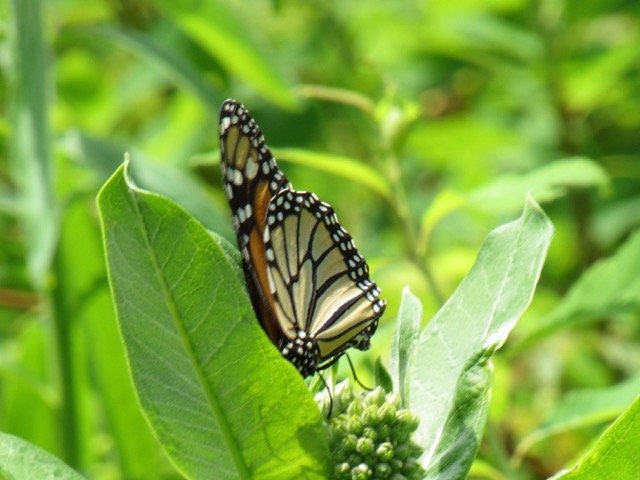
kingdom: Animalia
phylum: Arthropoda
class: Insecta
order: Lepidoptera
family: Nymphalidae
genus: Danaus
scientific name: Danaus plexippus
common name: Monarch
